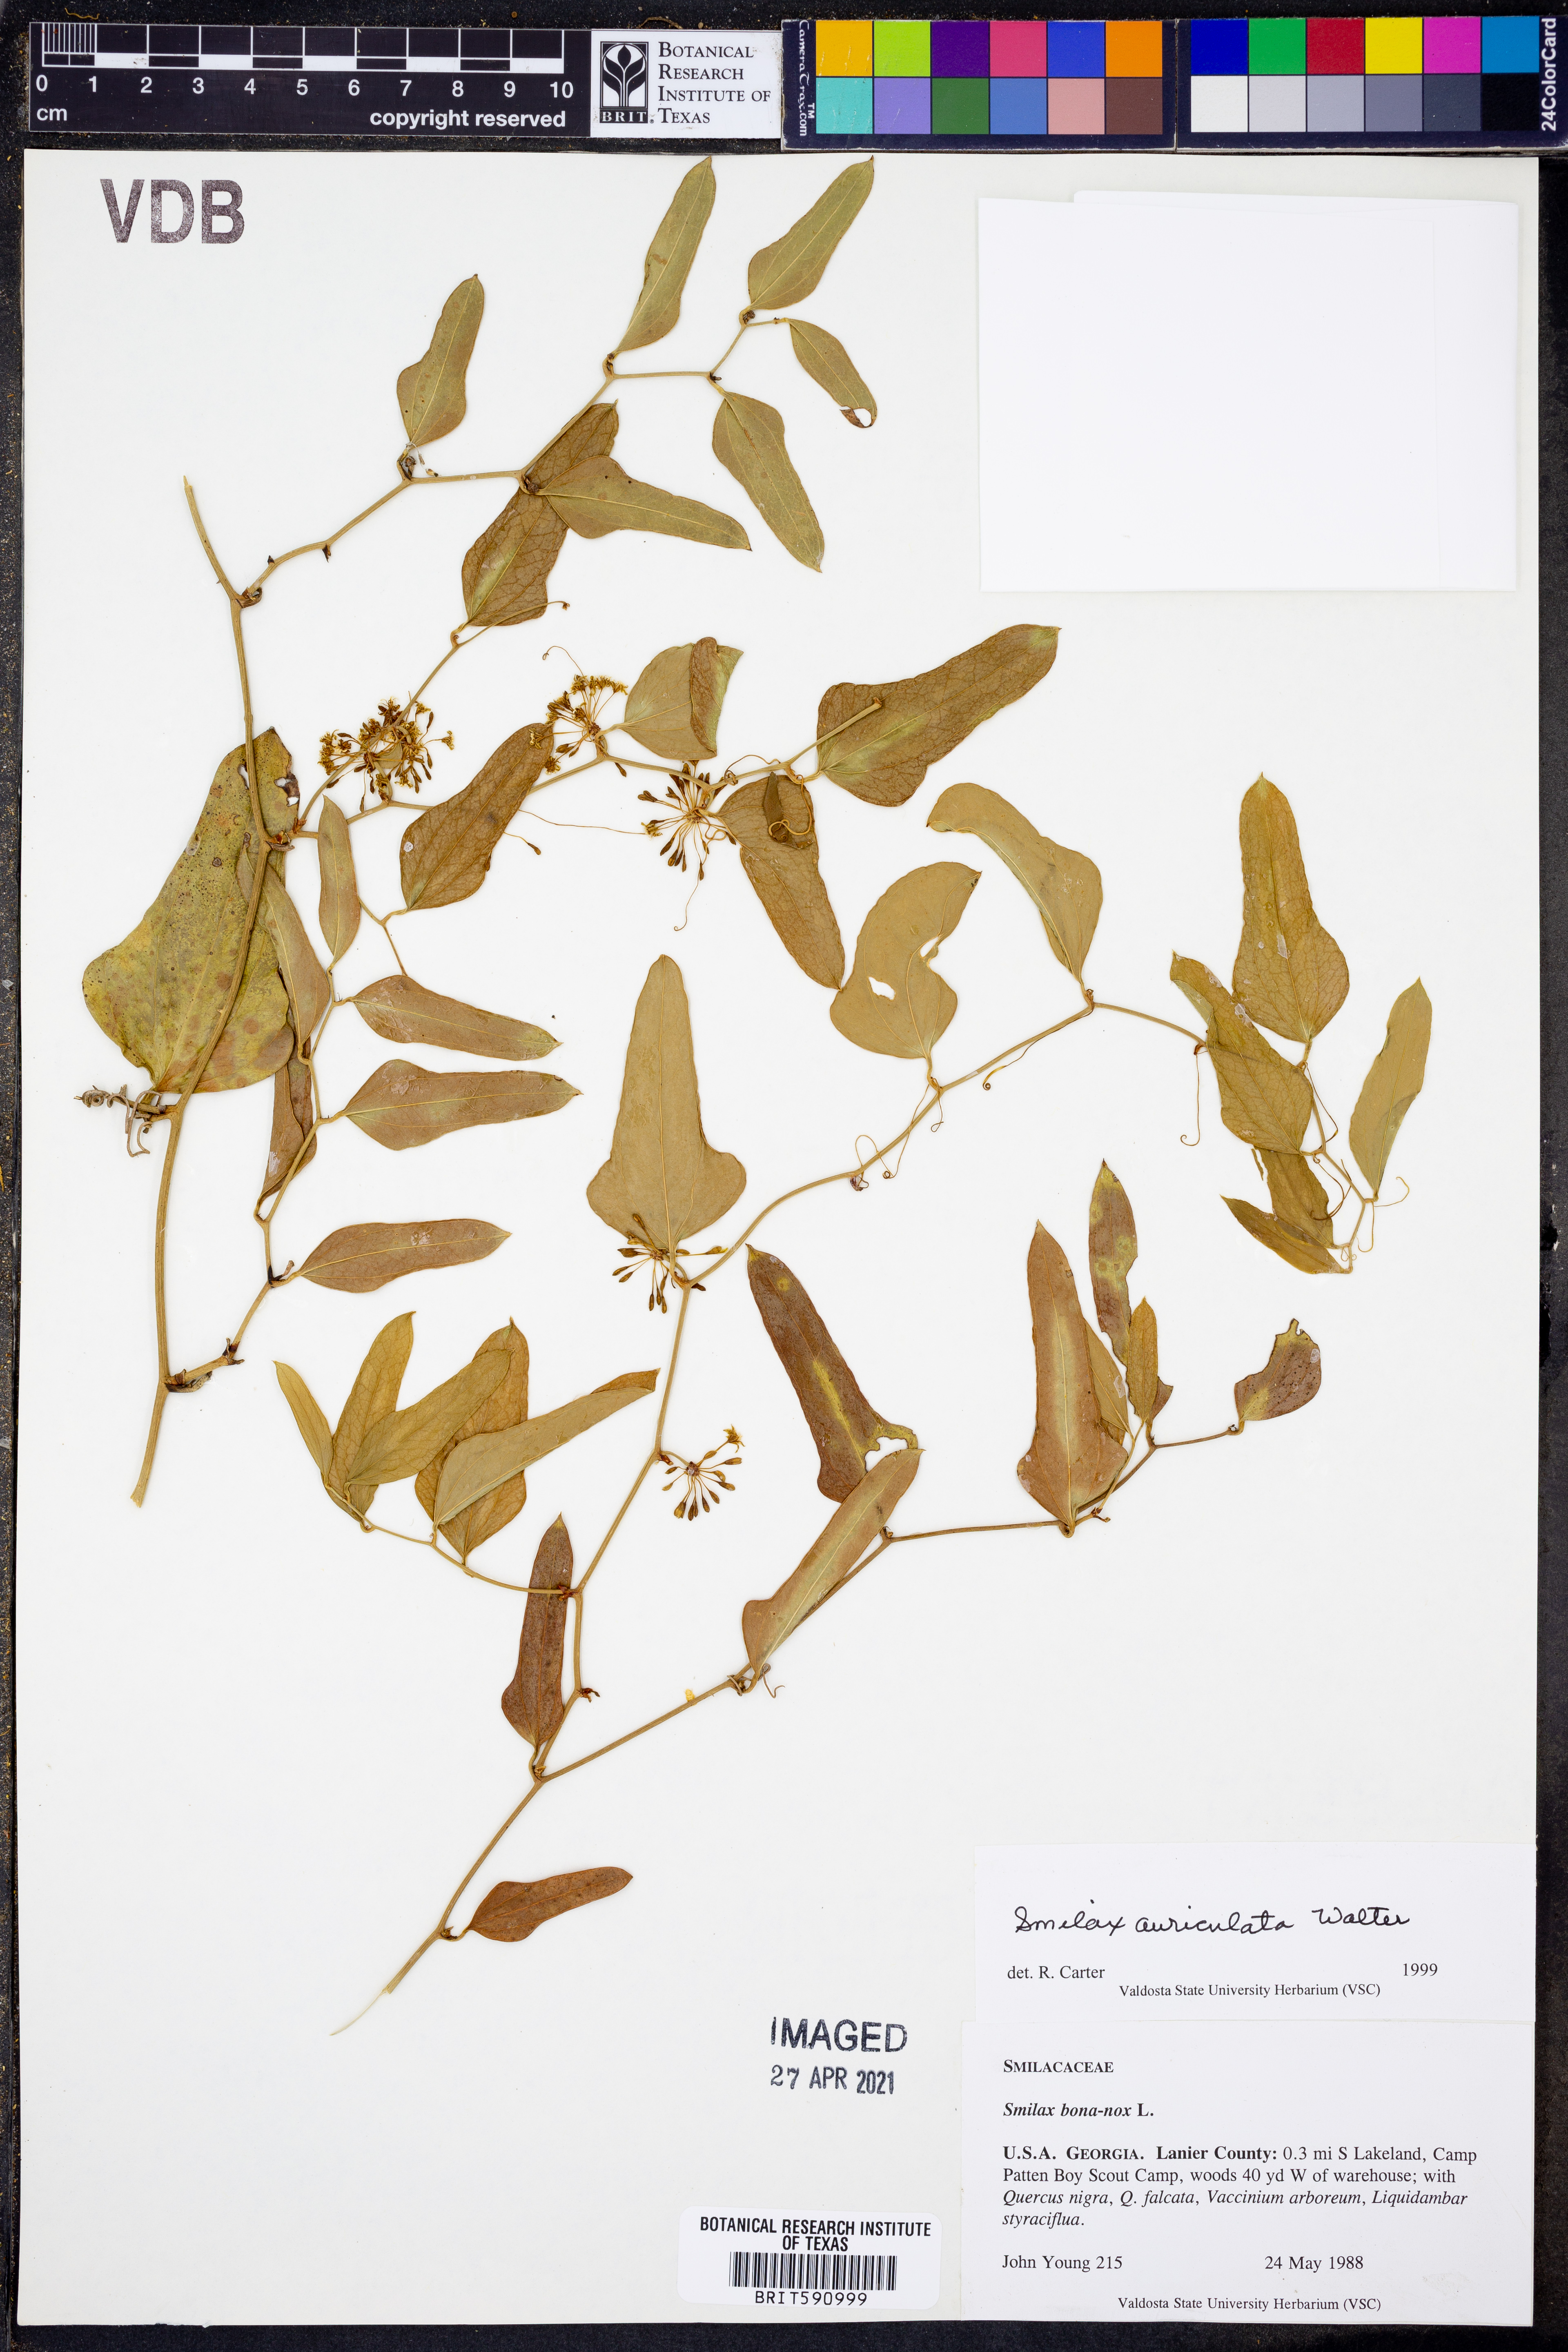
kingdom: Plantae
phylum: Tracheophyta
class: Liliopsida
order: Liliales
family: Smilacaceae
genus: Smilax
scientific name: Smilax auriculata
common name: Wild bamboo
